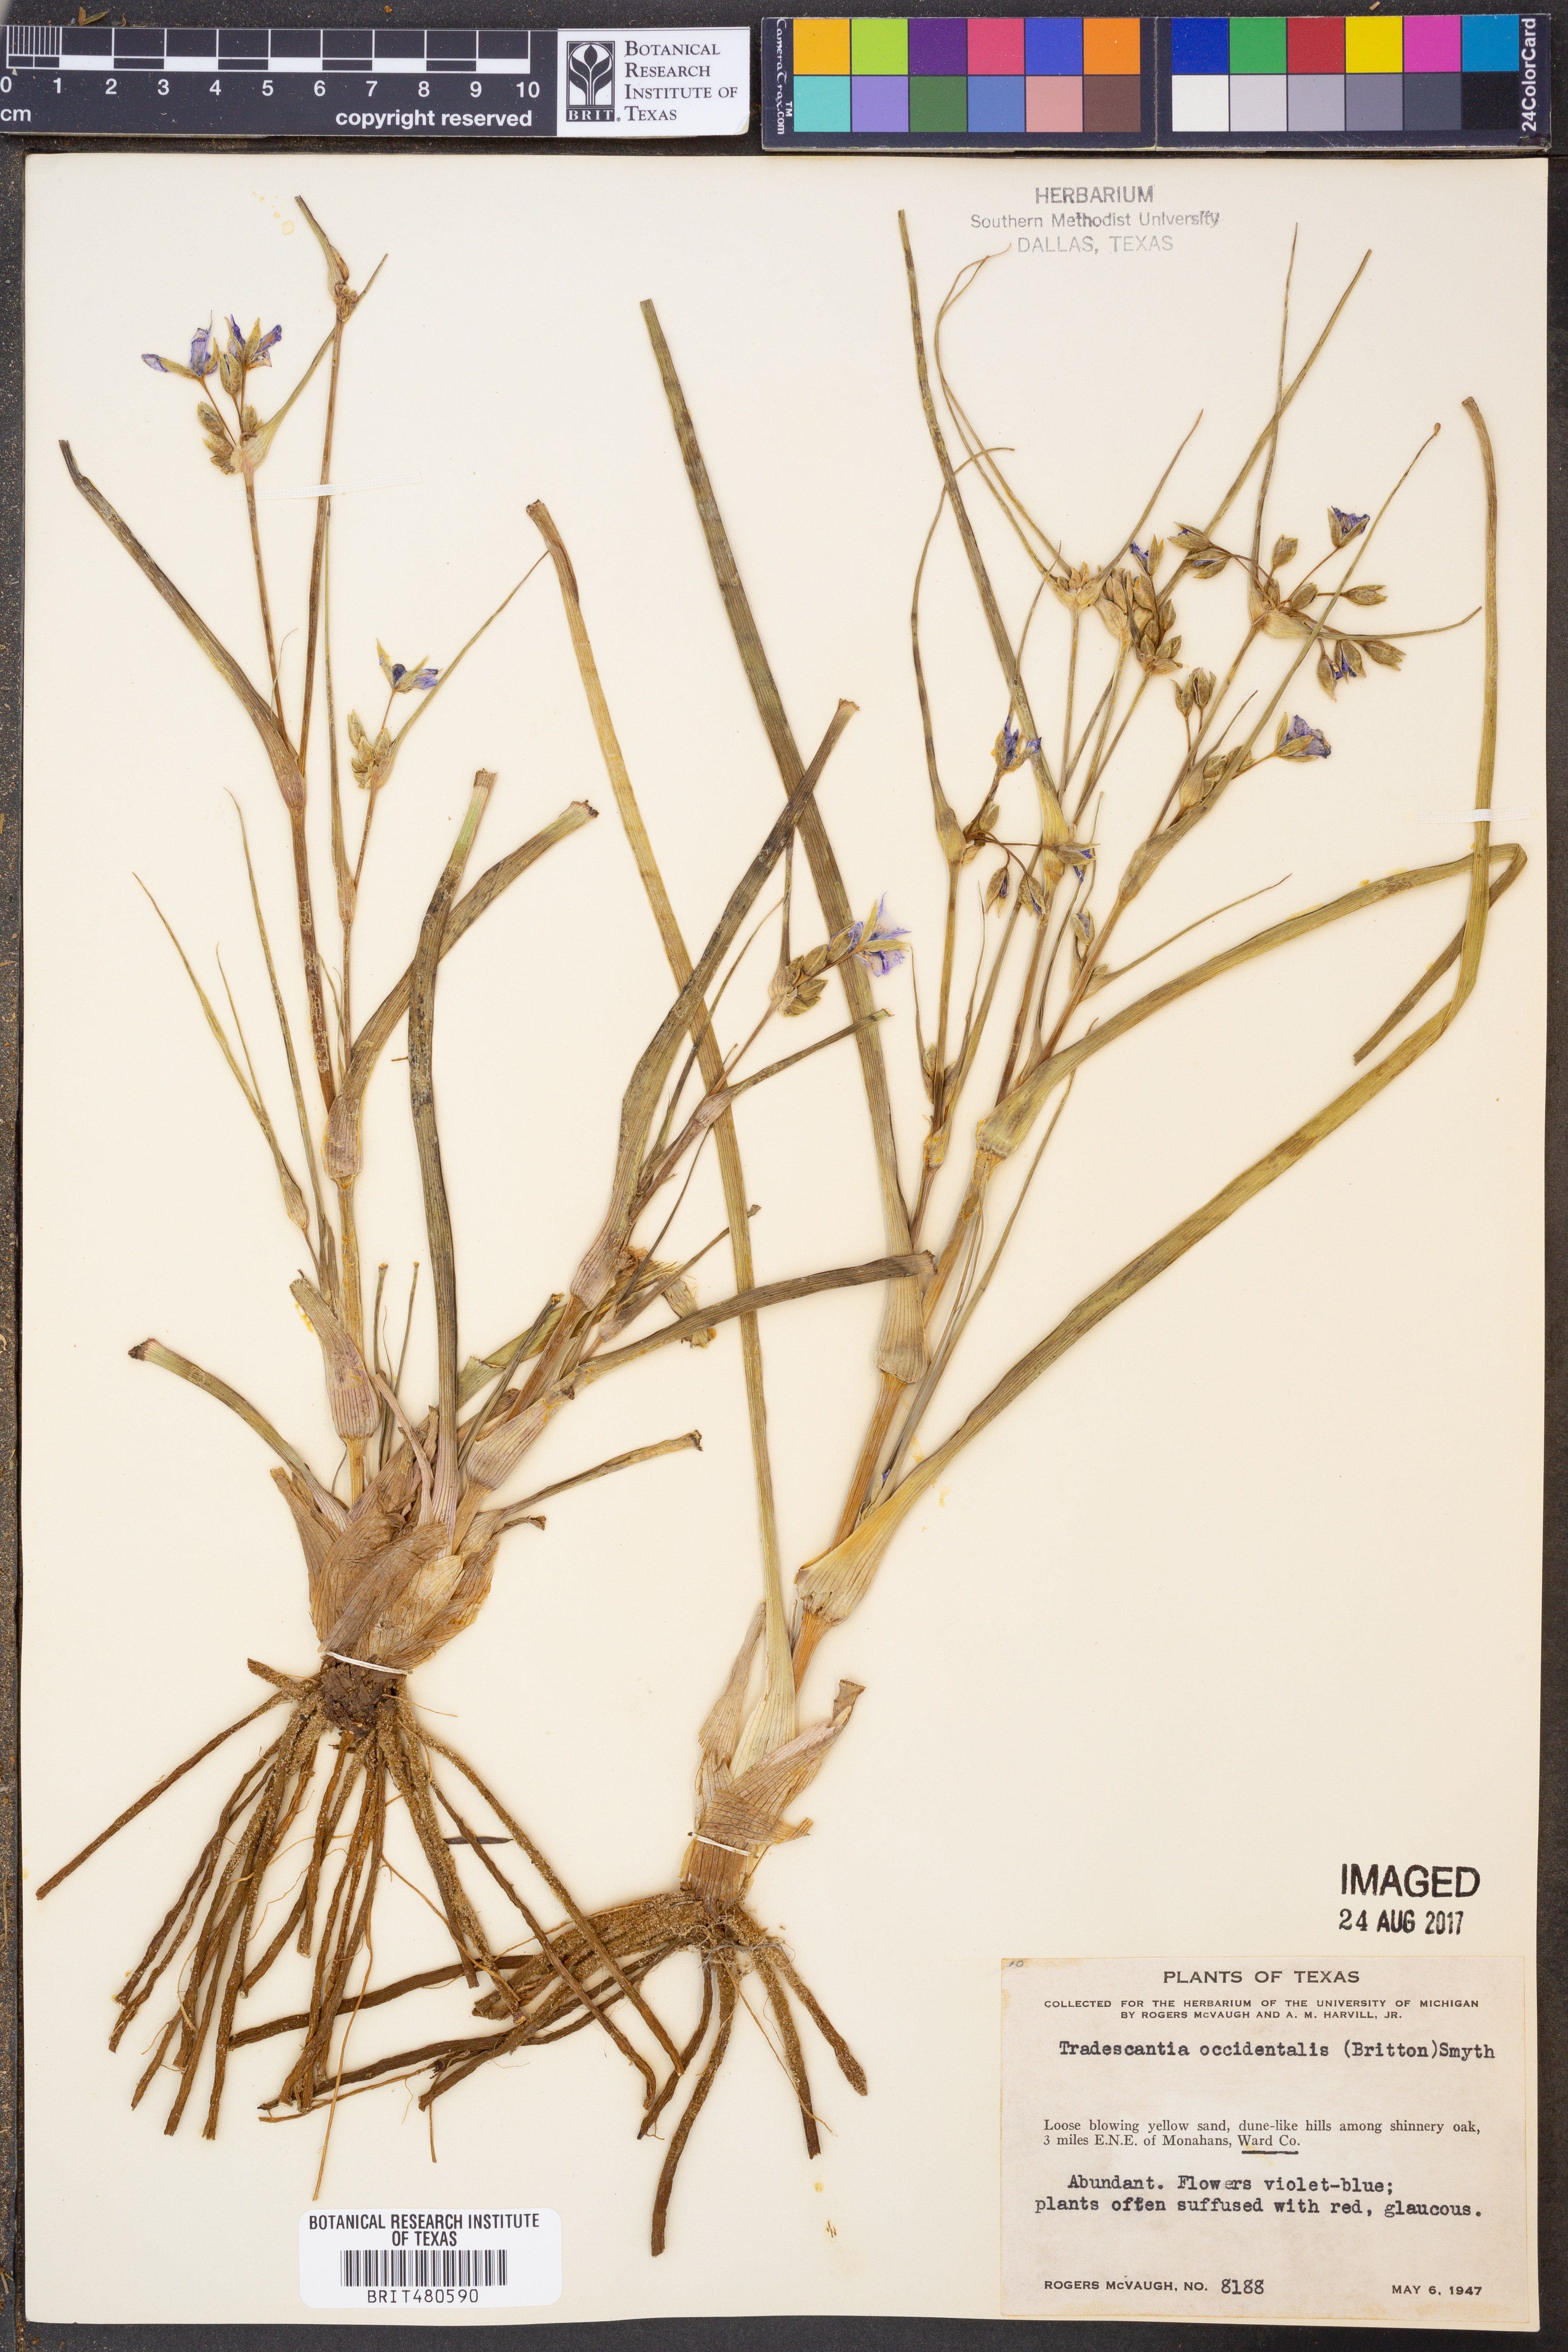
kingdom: Plantae
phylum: Tracheophyta
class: Liliopsida
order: Commelinales
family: Commelinaceae
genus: Tradescantia
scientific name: Tradescantia occidentalis
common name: Prairie spiderwort
